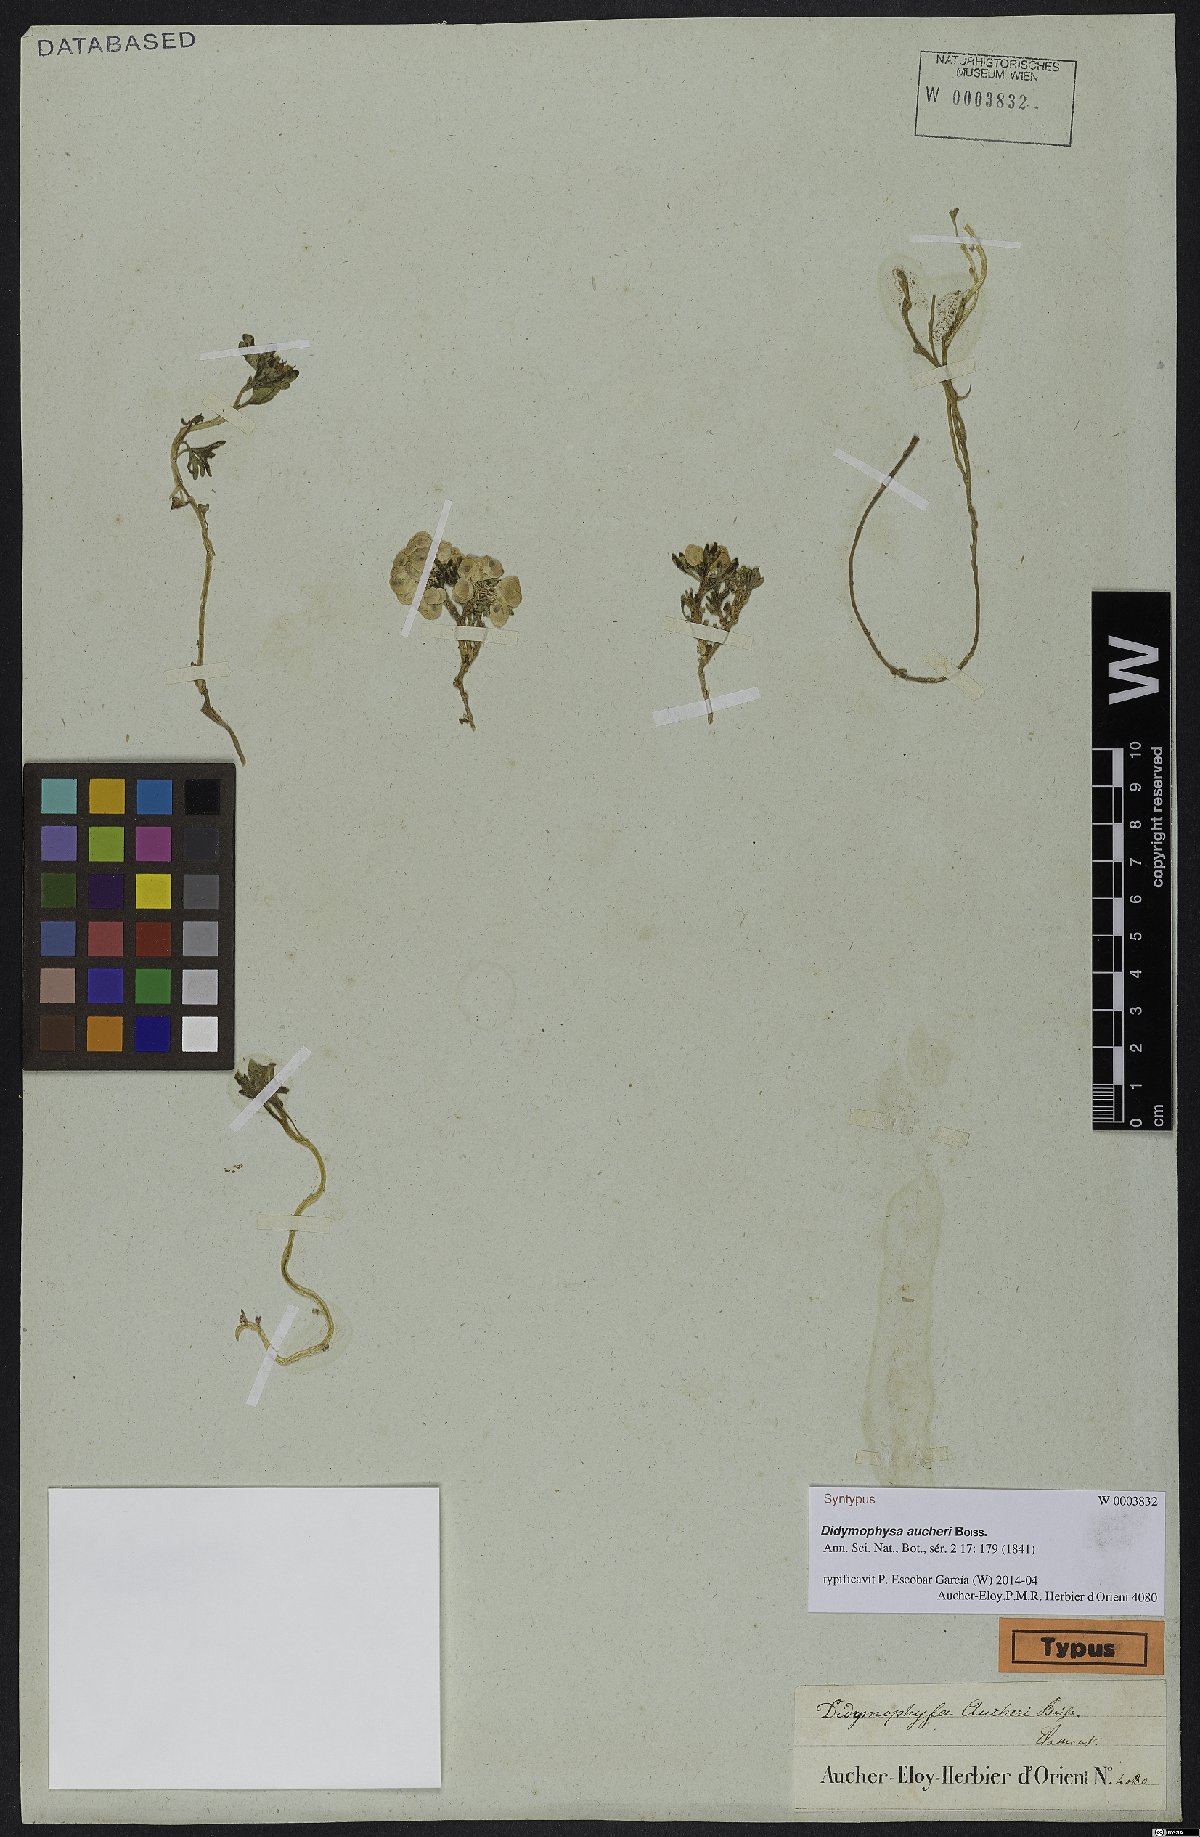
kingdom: Plantae
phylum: Tracheophyta
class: Magnoliopsida
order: Brassicales
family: Brassicaceae
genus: Didymophysa
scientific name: Didymophysa aucheri
